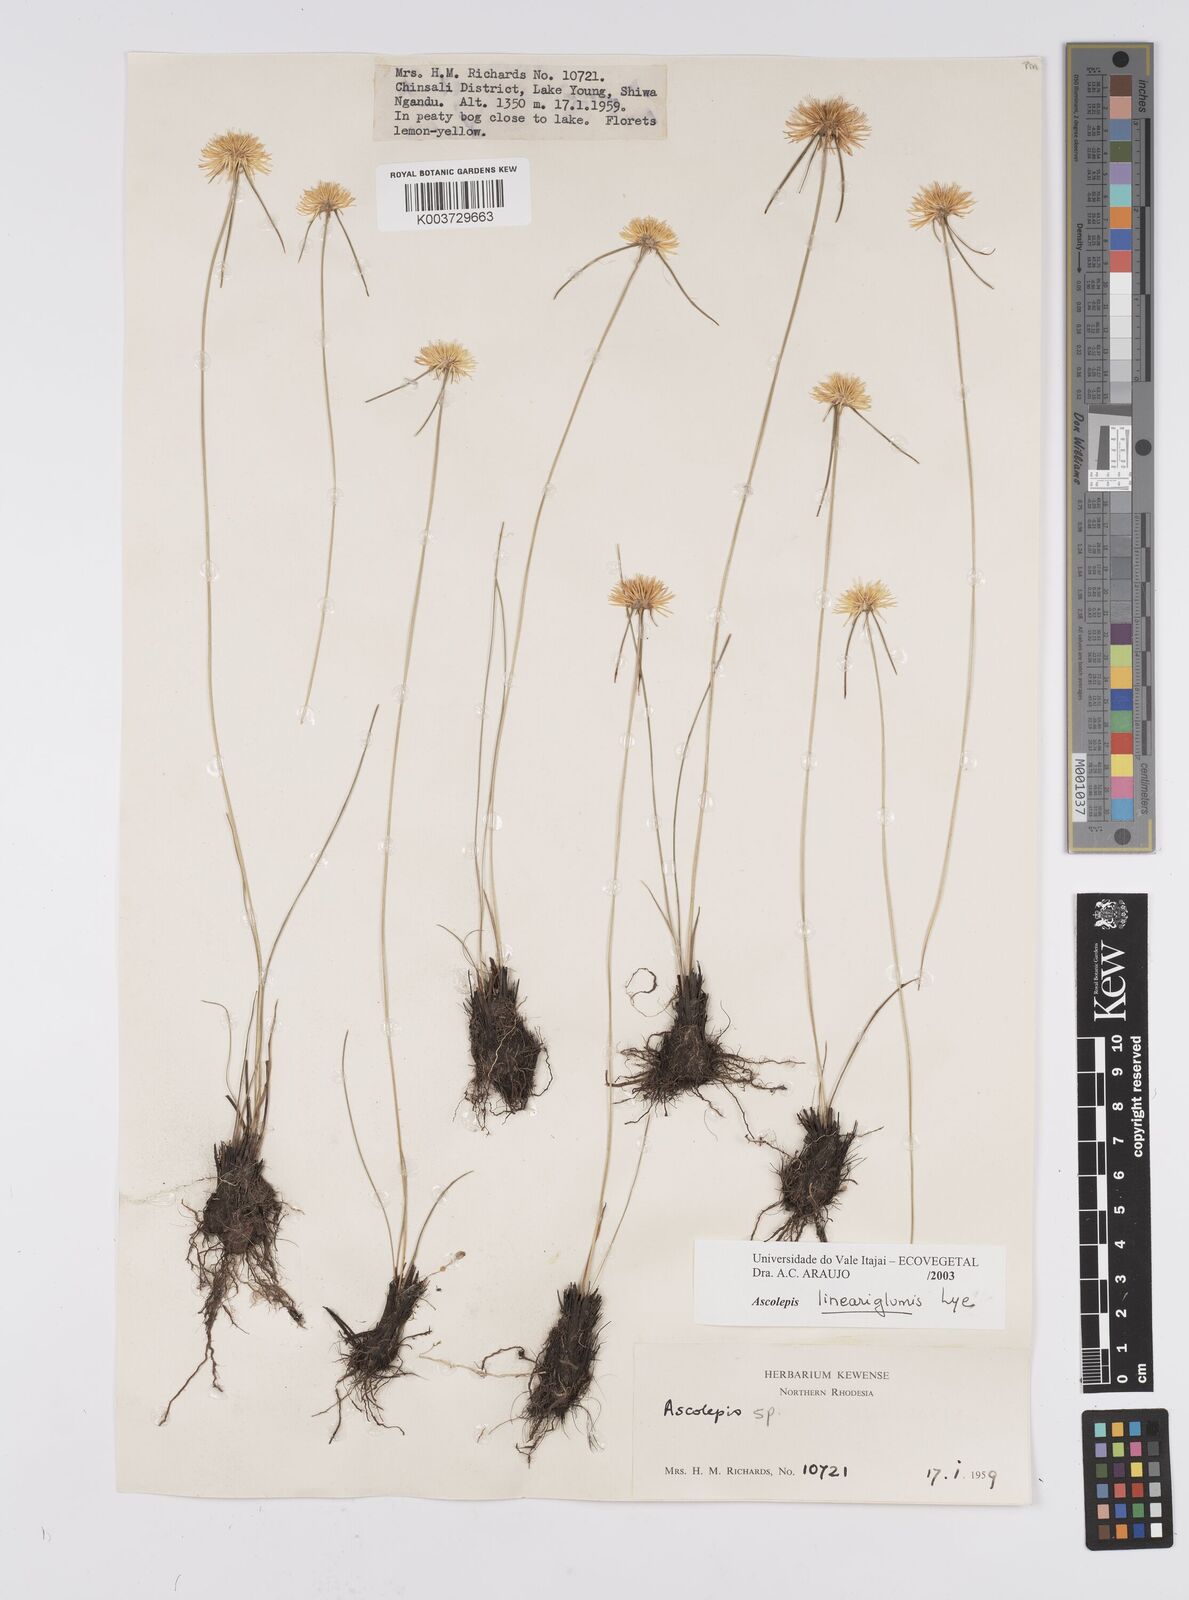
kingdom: Plantae
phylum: Tracheophyta
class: Liliopsida
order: Poales
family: Cyperaceae
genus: Cyperus
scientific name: Cyperus
